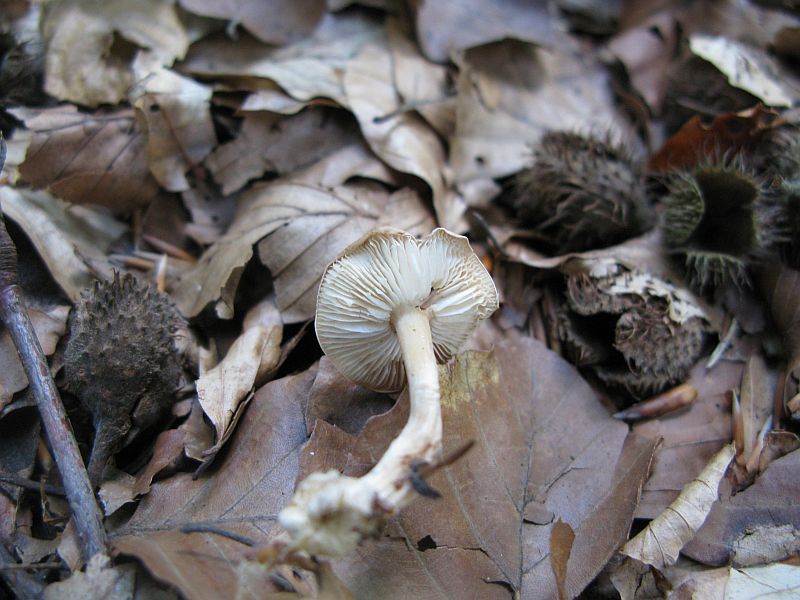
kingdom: Fungi
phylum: Basidiomycota
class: Agaricomycetes
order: Agaricales
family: Omphalotaceae
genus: Gymnopus
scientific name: Gymnopus dryophilus
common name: løv-fladhat
